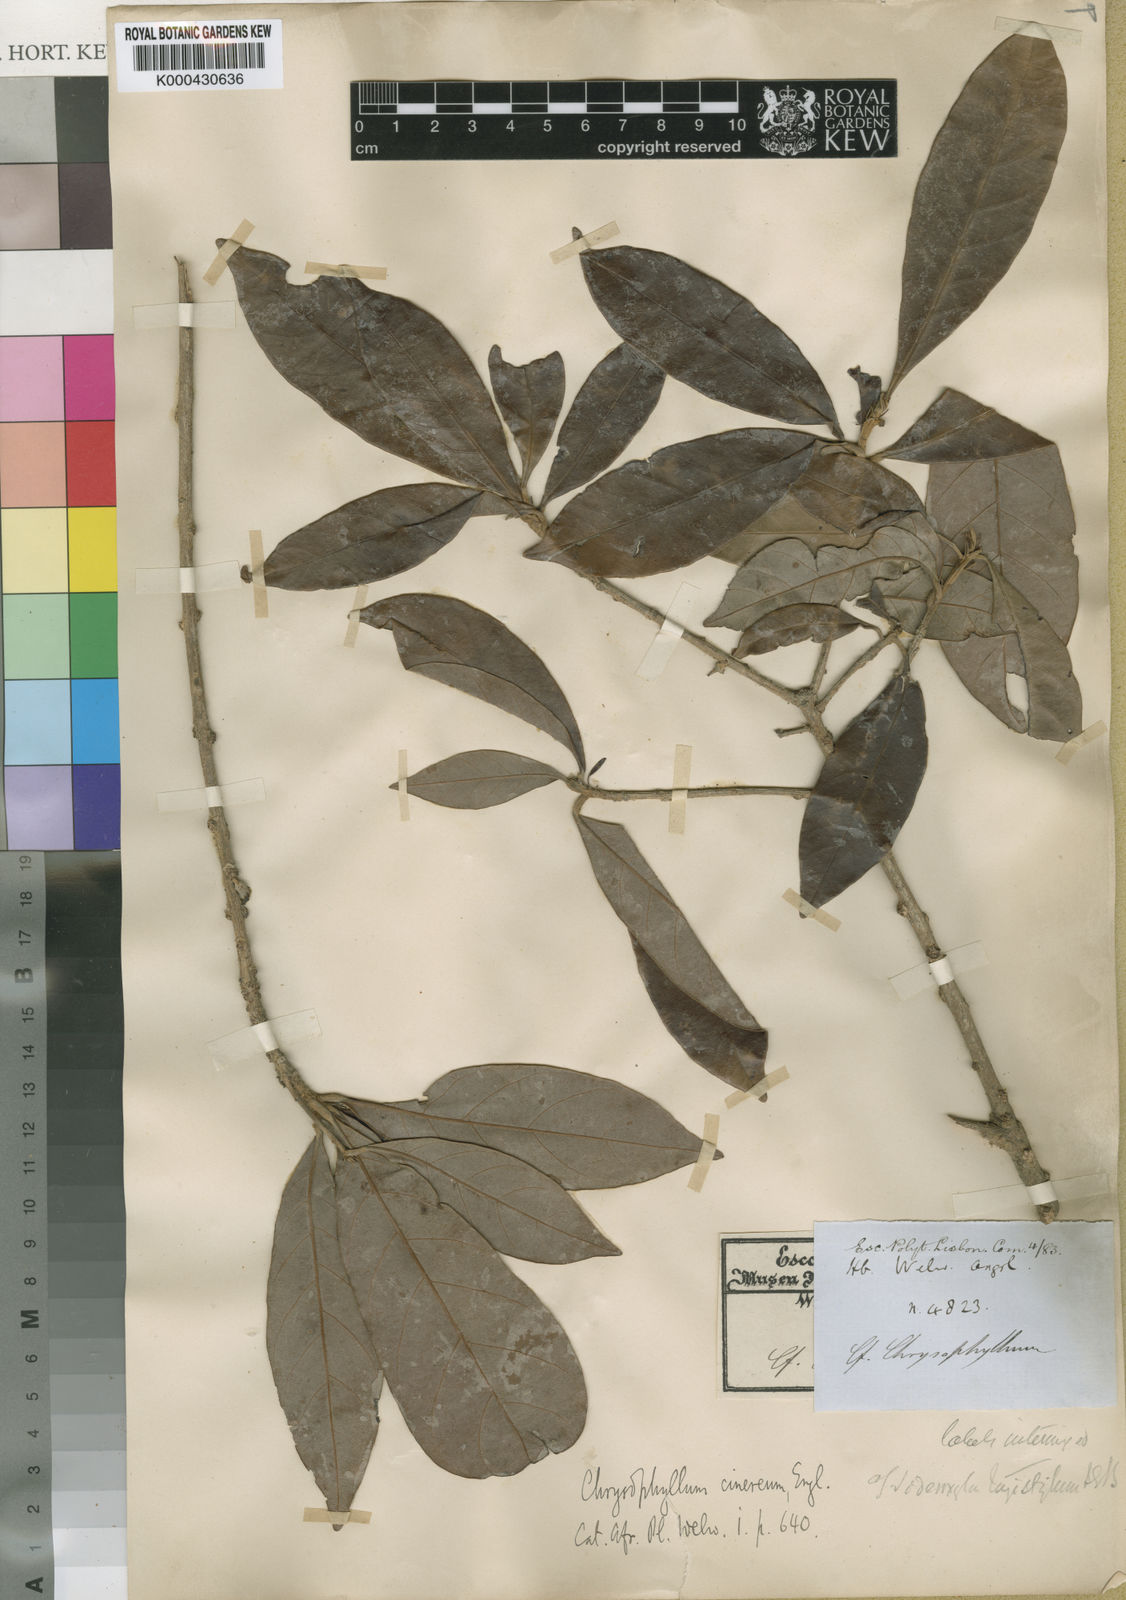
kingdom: Plantae
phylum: Tracheophyta
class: Magnoliopsida
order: Ericales
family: Sapotaceae
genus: Synsepalum
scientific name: Synsepalum brevipes
